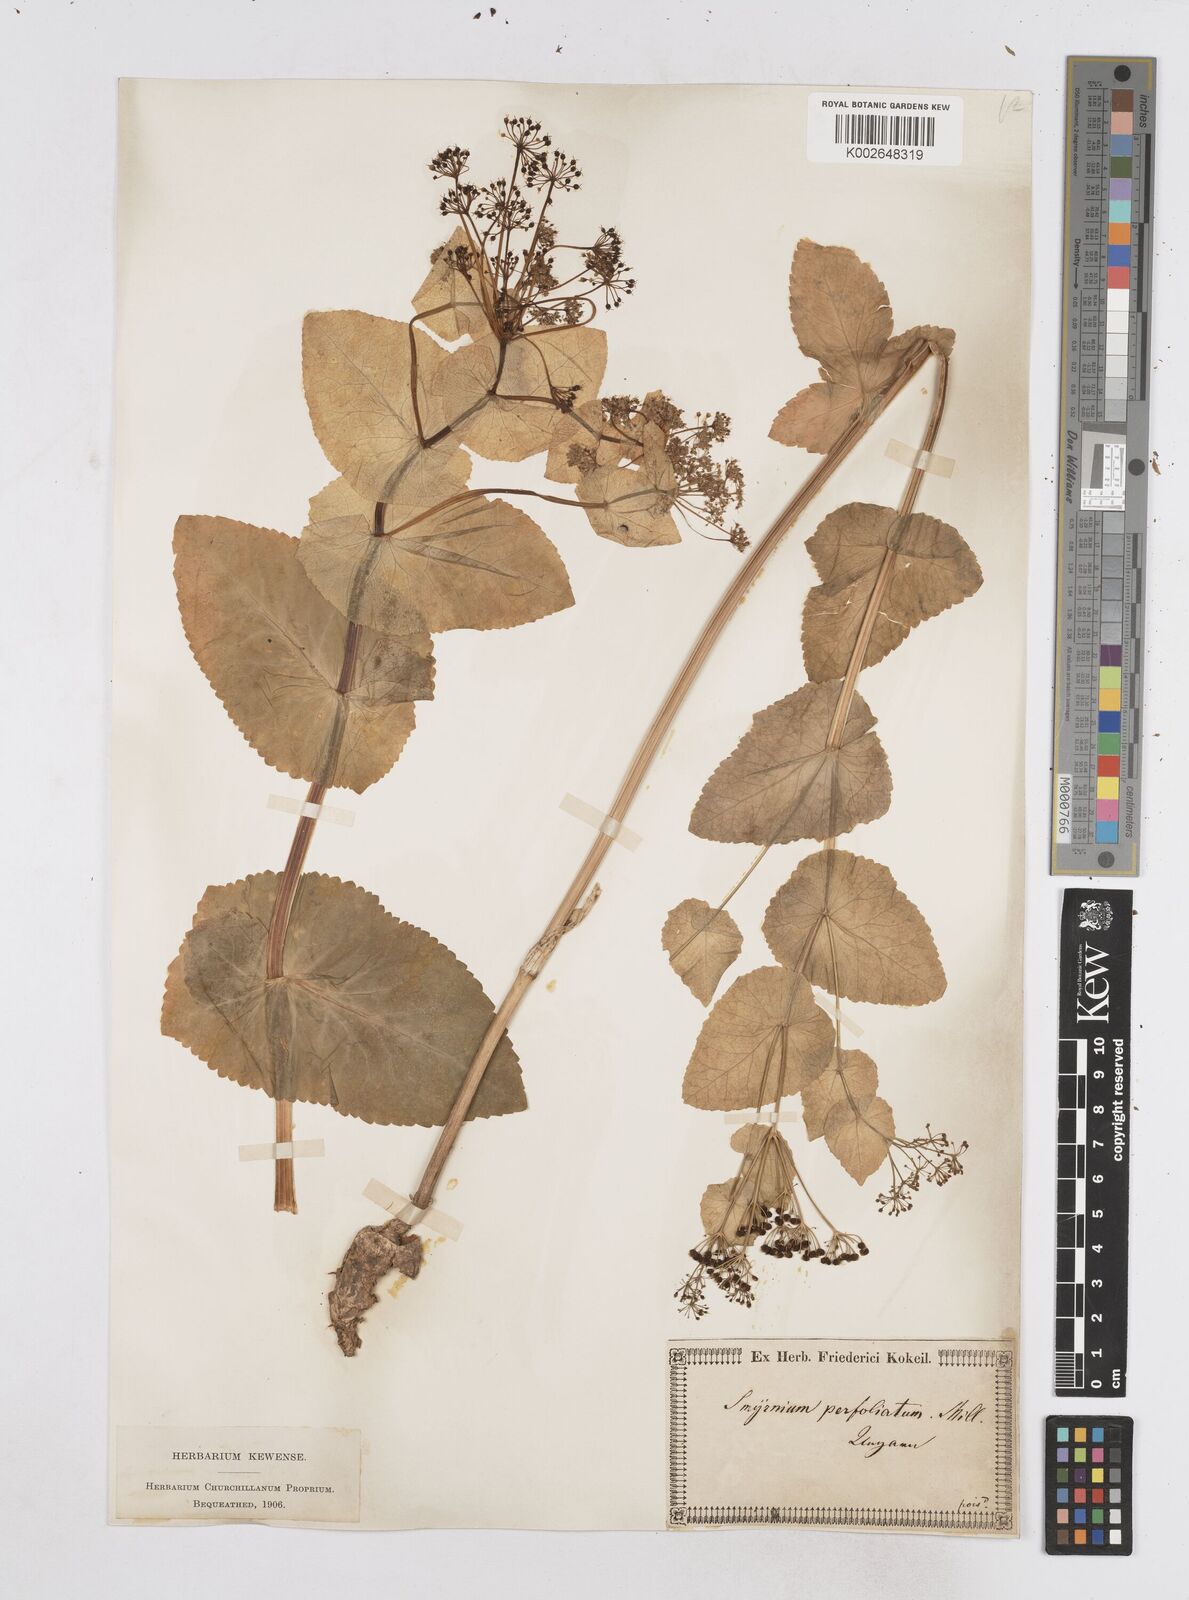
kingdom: Plantae
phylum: Tracheophyta
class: Magnoliopsida
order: Apiales
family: Apiaceae
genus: Smyrnium
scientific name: Smyrnium perfoliatum
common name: Perfoliate alexanders
